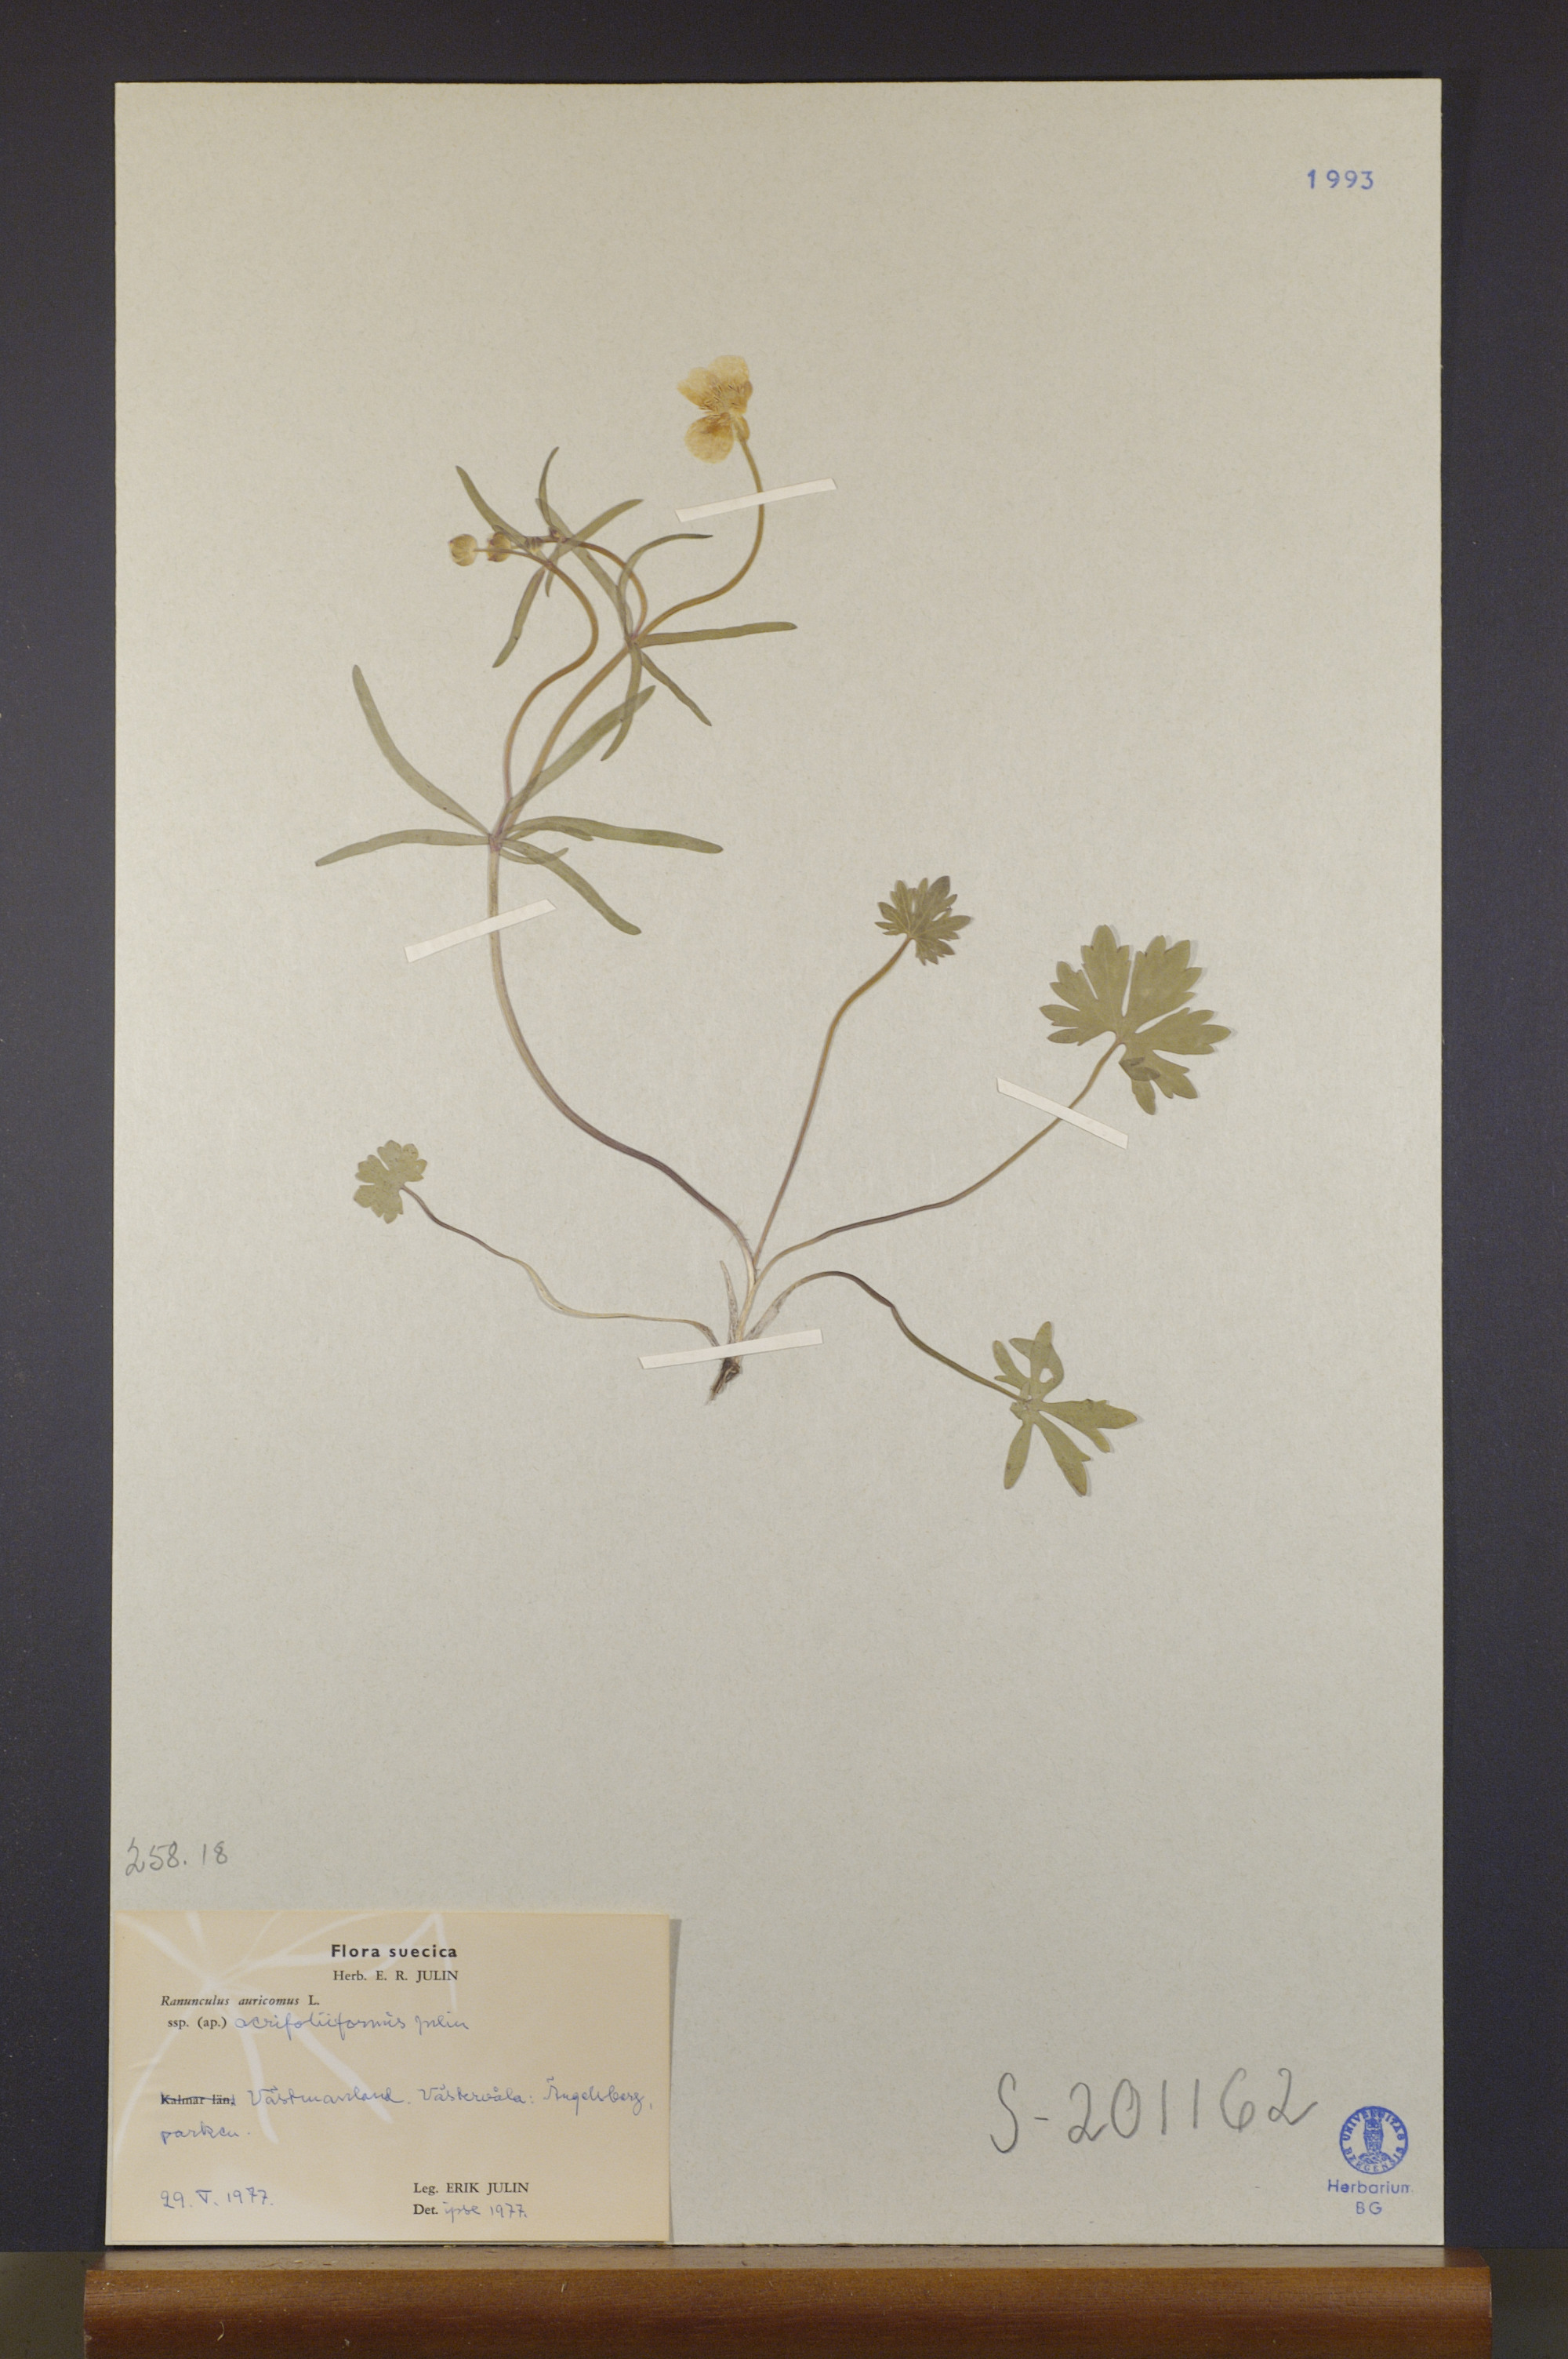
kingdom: Plantae
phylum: Tracheophyta
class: Magnoliopsida
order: Ranunculales
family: Ranunculaceae
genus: Ranunculus
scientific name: Ranunculus acrifoliiformis
